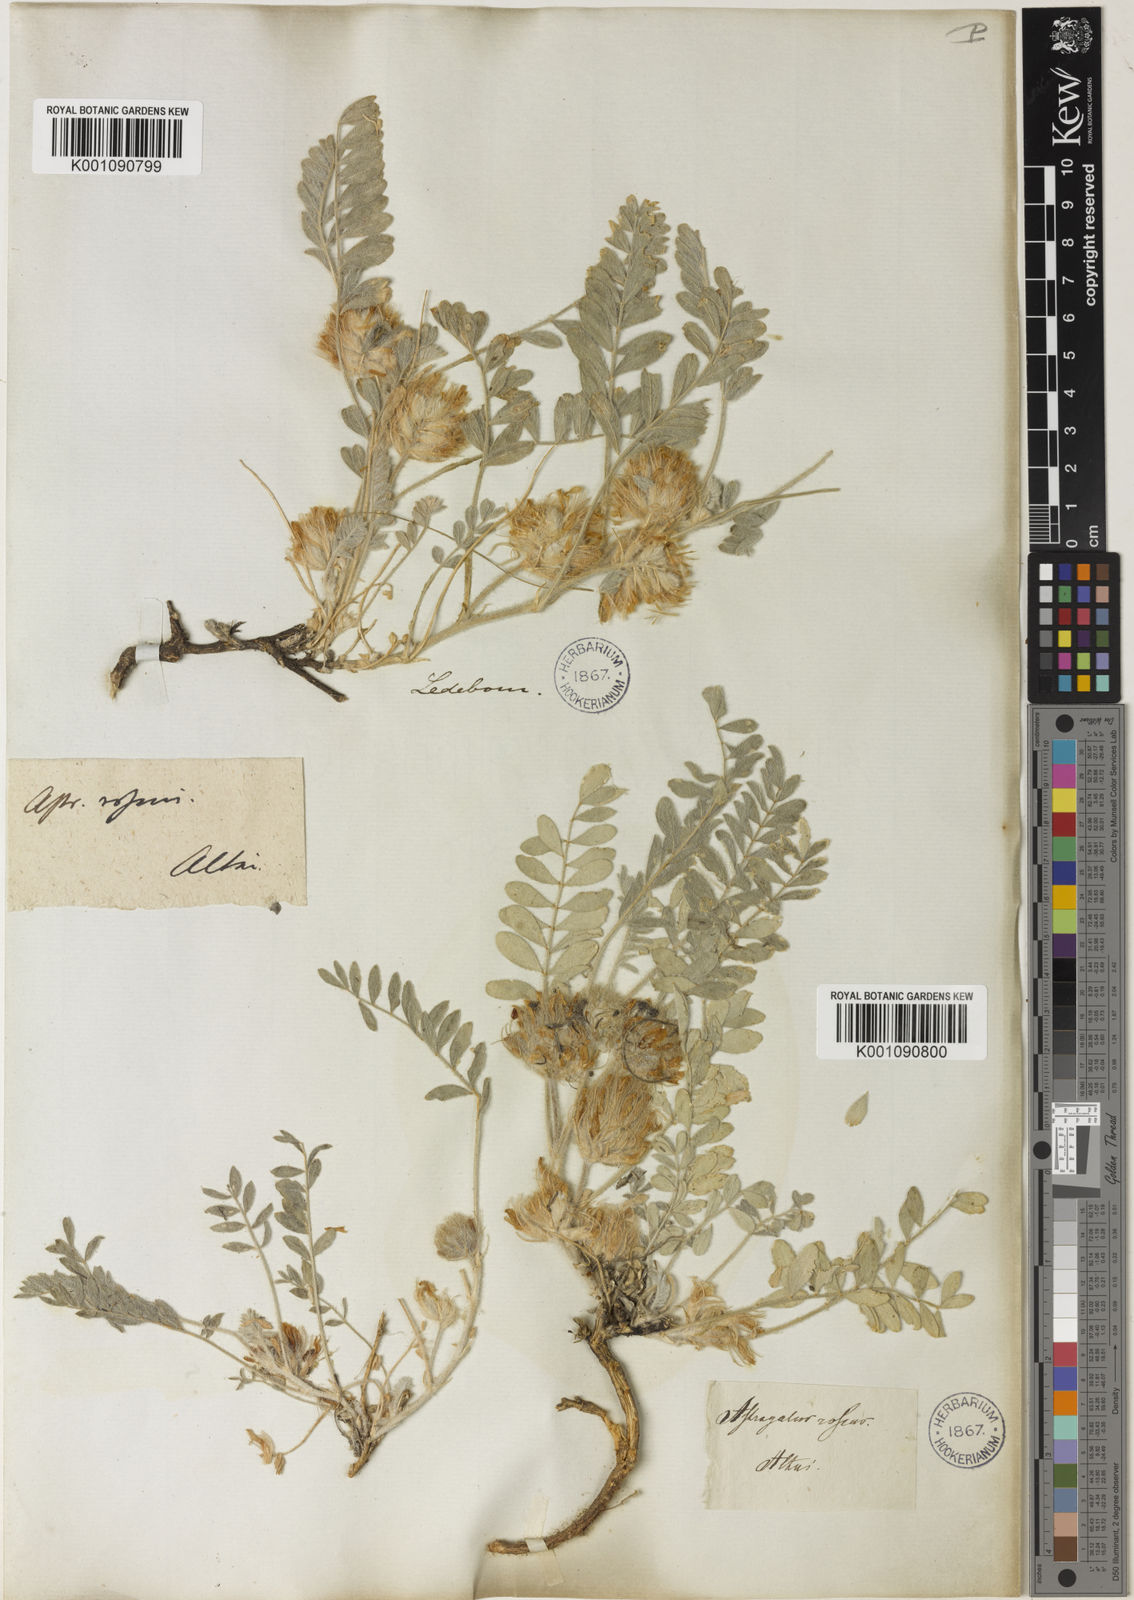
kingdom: Plantae
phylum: Tracheophyta
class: Magnoliopsida
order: Fabales
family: Fabaceae
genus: Astragalus
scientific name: Astragalus
